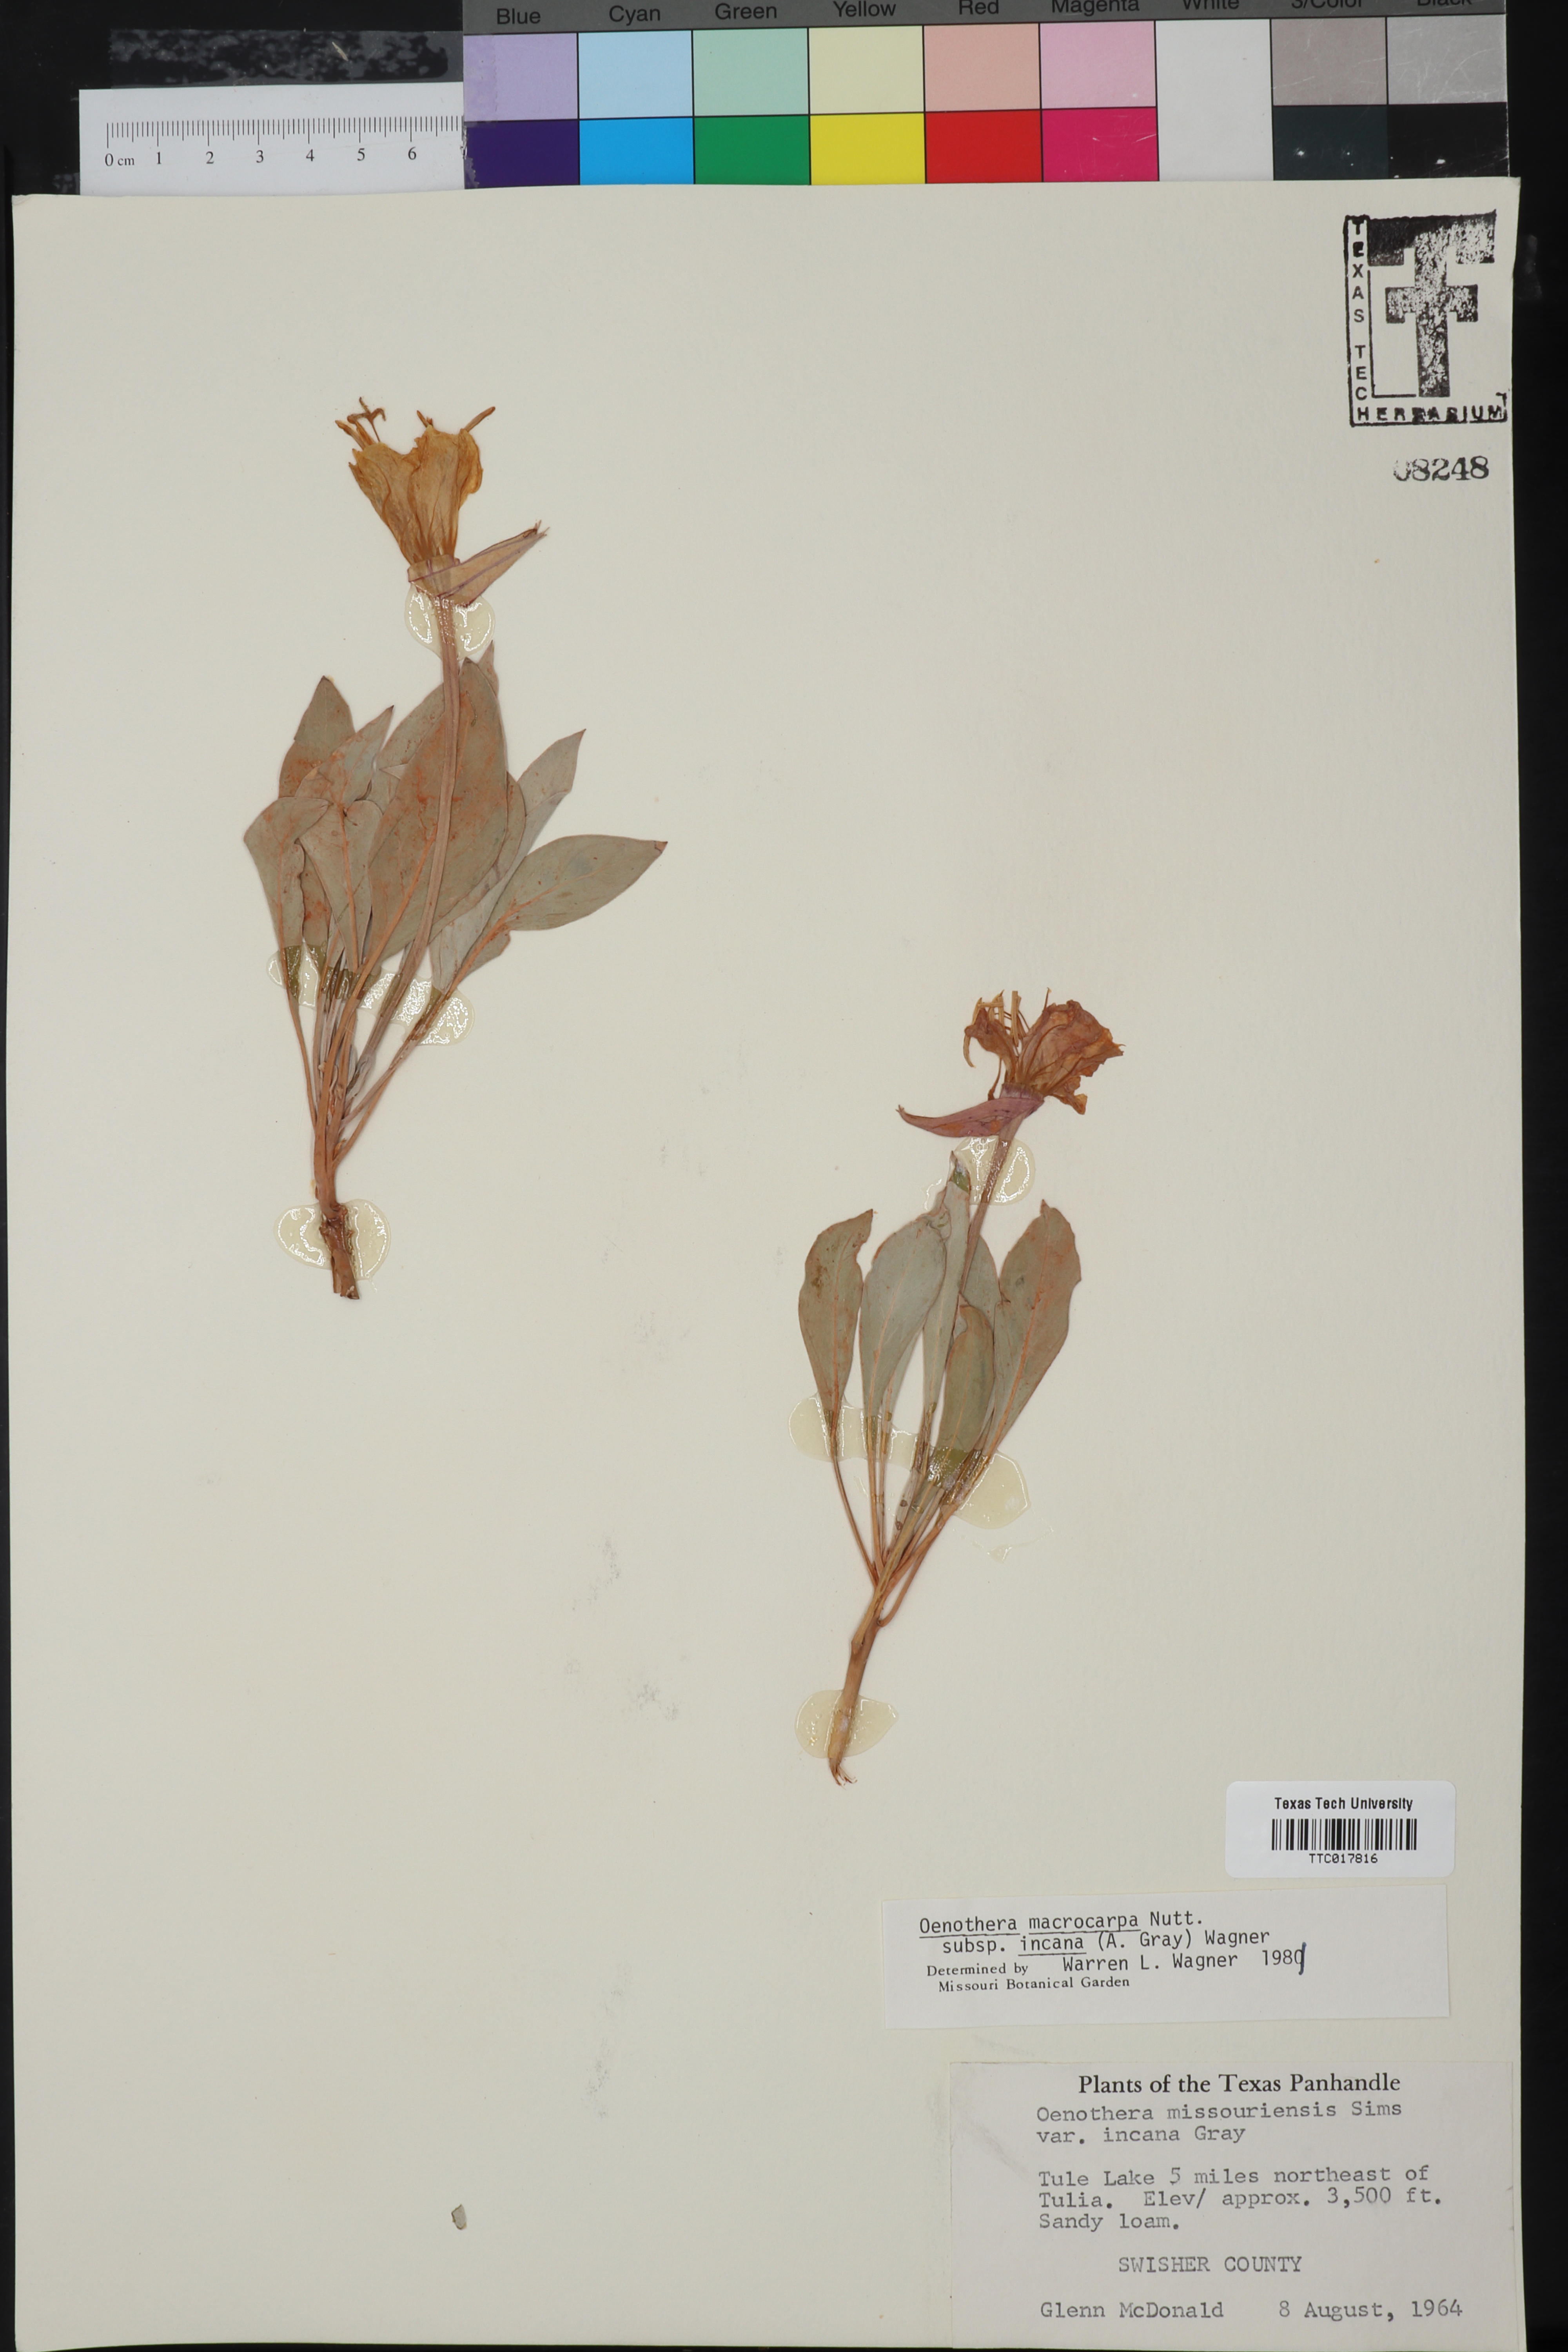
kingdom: Plantae
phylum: Tracheophyta
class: Magnoliopsida
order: Myrtales
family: Onagraceae
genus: Oenothera
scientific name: Oenothera macrocarpa
